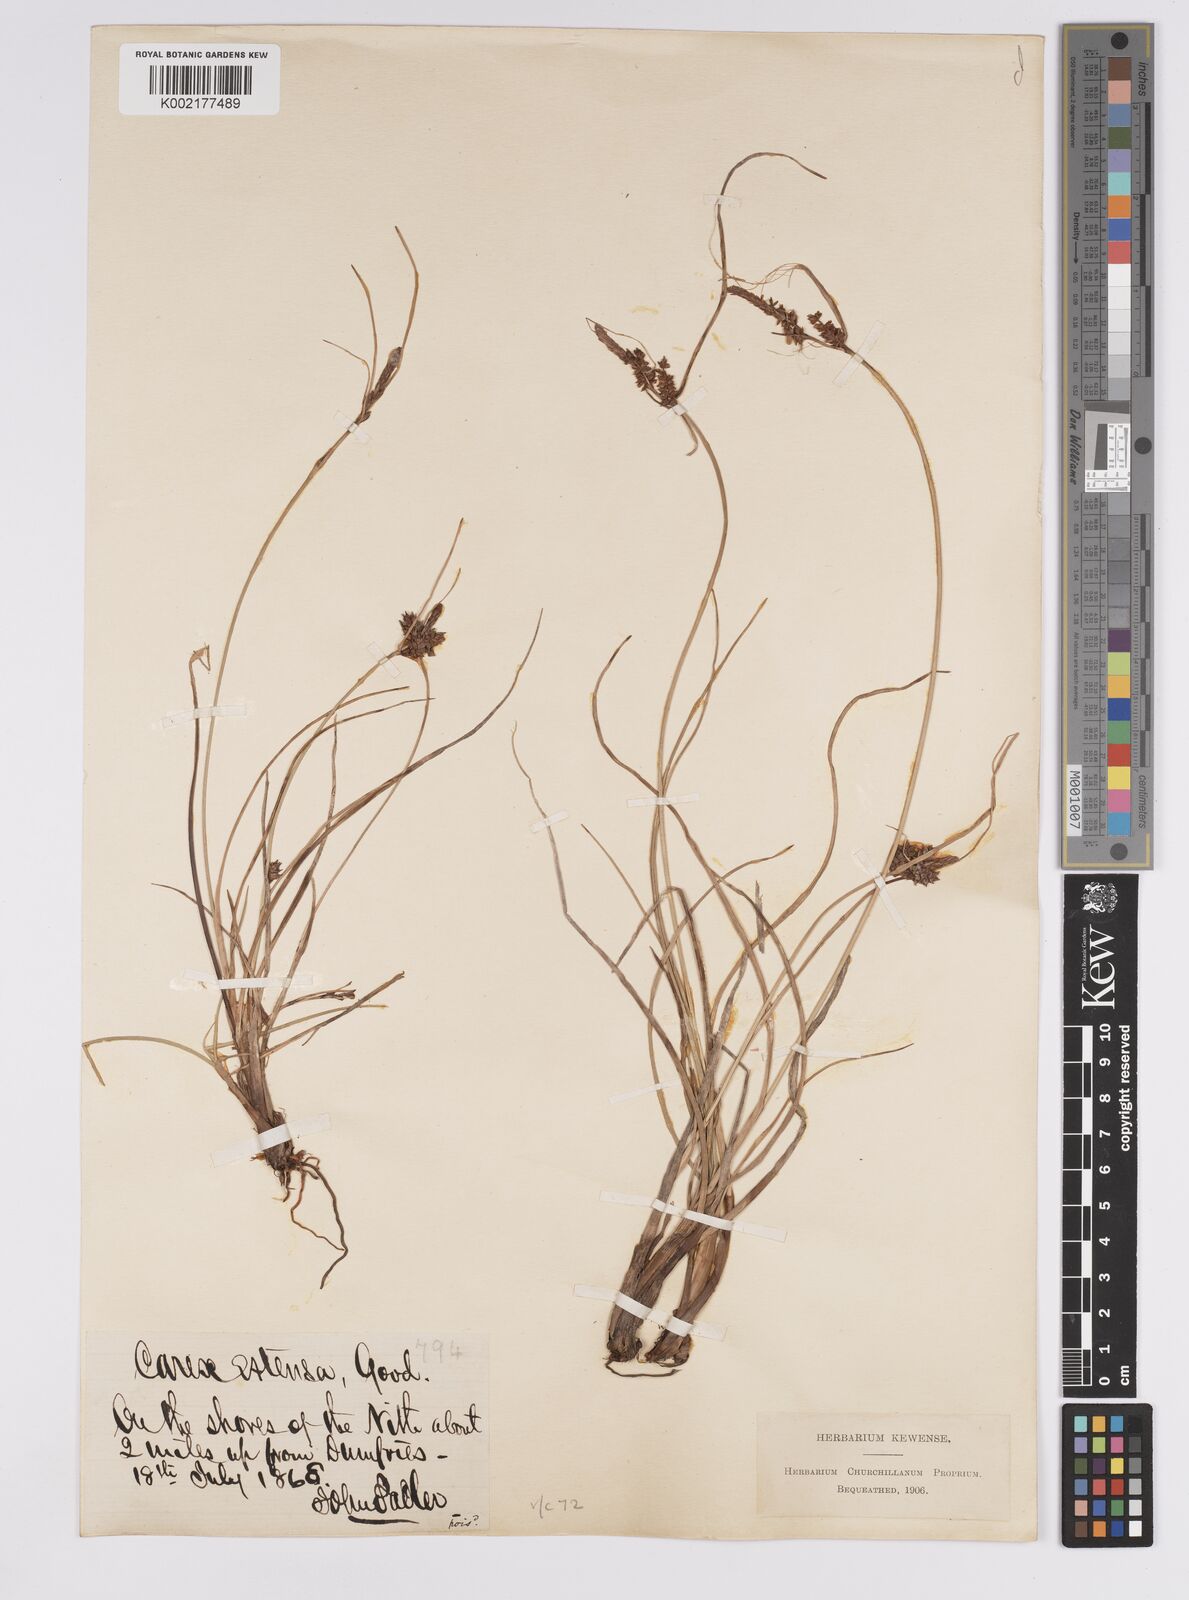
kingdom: Plantae
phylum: Tracheophyta
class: Liliopsida
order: Poales
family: Cyperaceae
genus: Carex
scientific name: Carex extensa
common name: Long-bracted sedge
